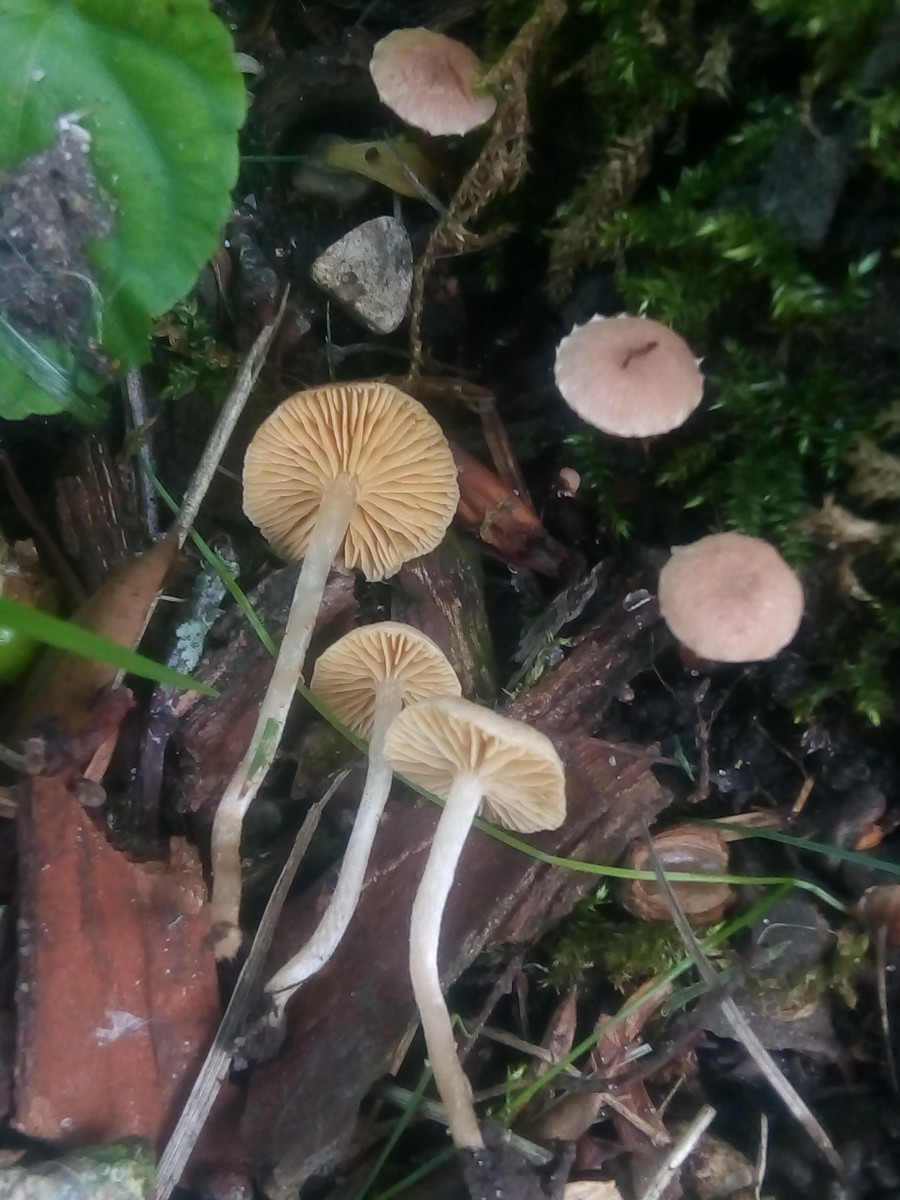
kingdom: Fungi
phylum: Basidiomycota
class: Agaricomycetes
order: Agaricales
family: Tubariaceae
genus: Tubaria
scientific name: Tubaria dispersa
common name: tjørne-fnughat
